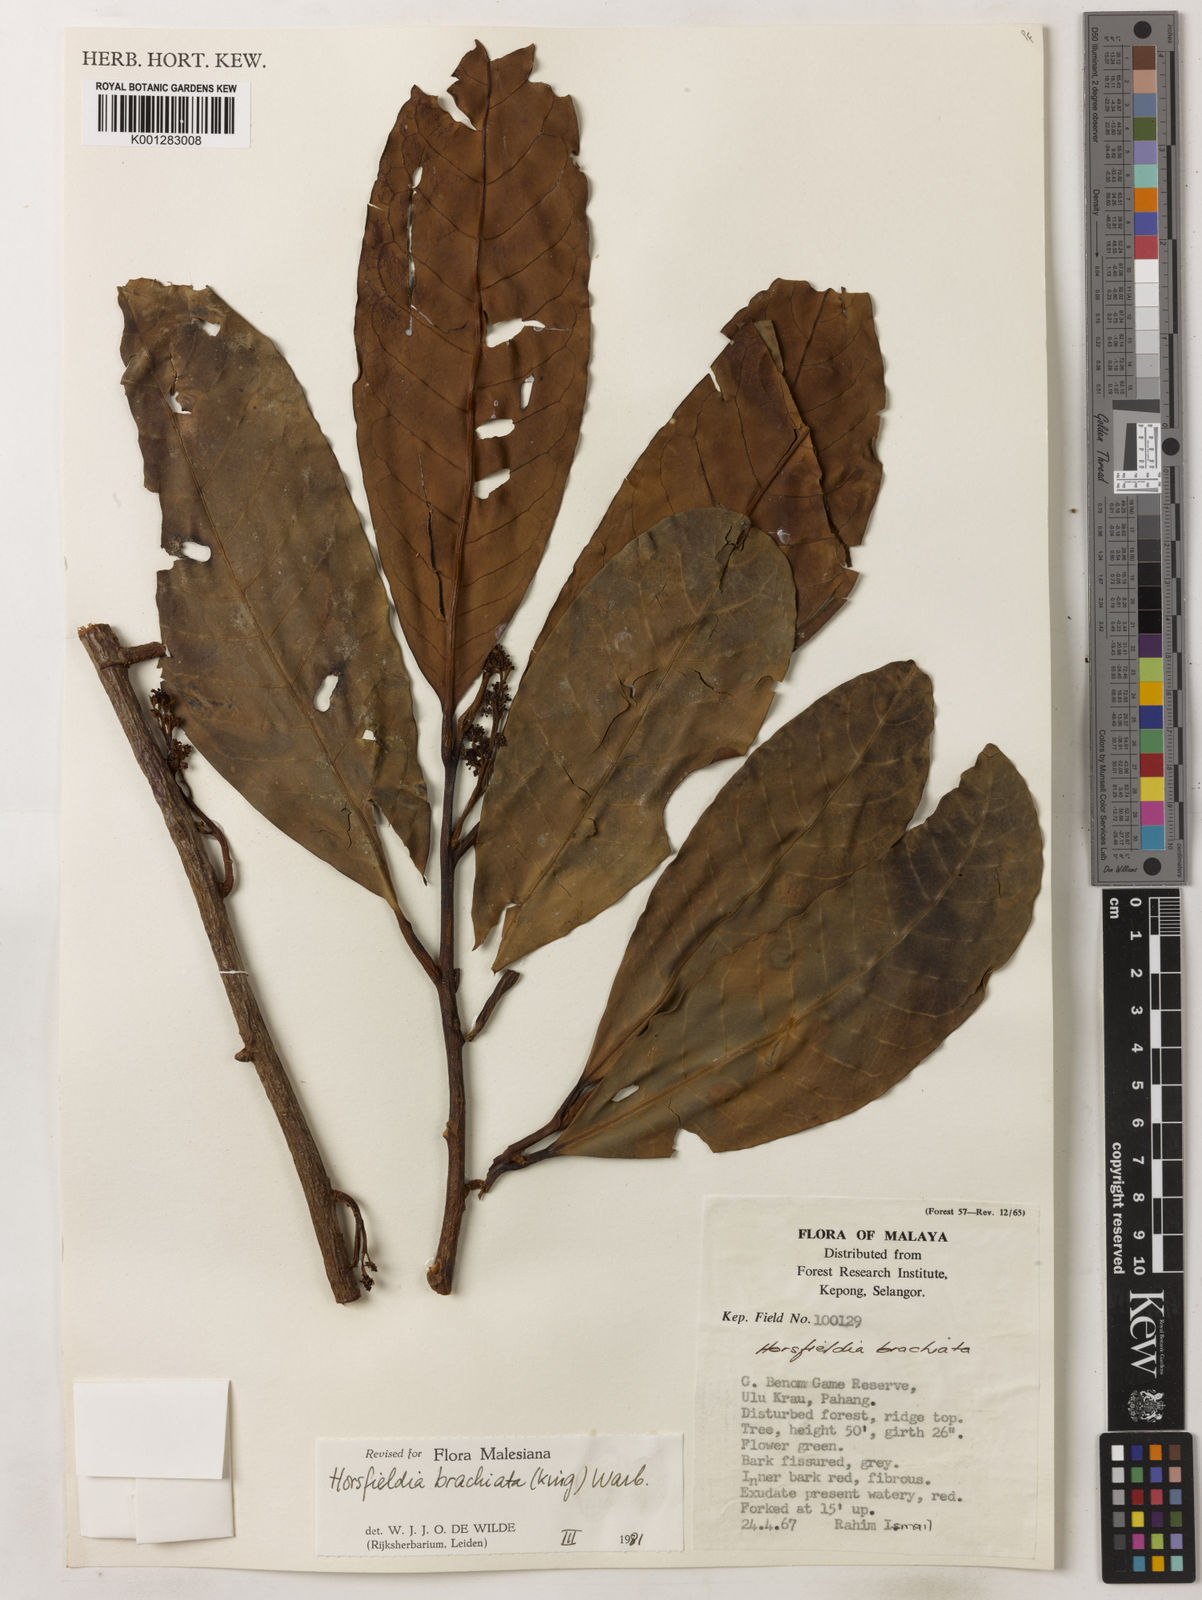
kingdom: Plantae
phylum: Tracheophyta
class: Magnoliopsida
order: Magnoliales
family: Myristicaceae
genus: Horsfieldia
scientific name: Horsfieldia brachiata
